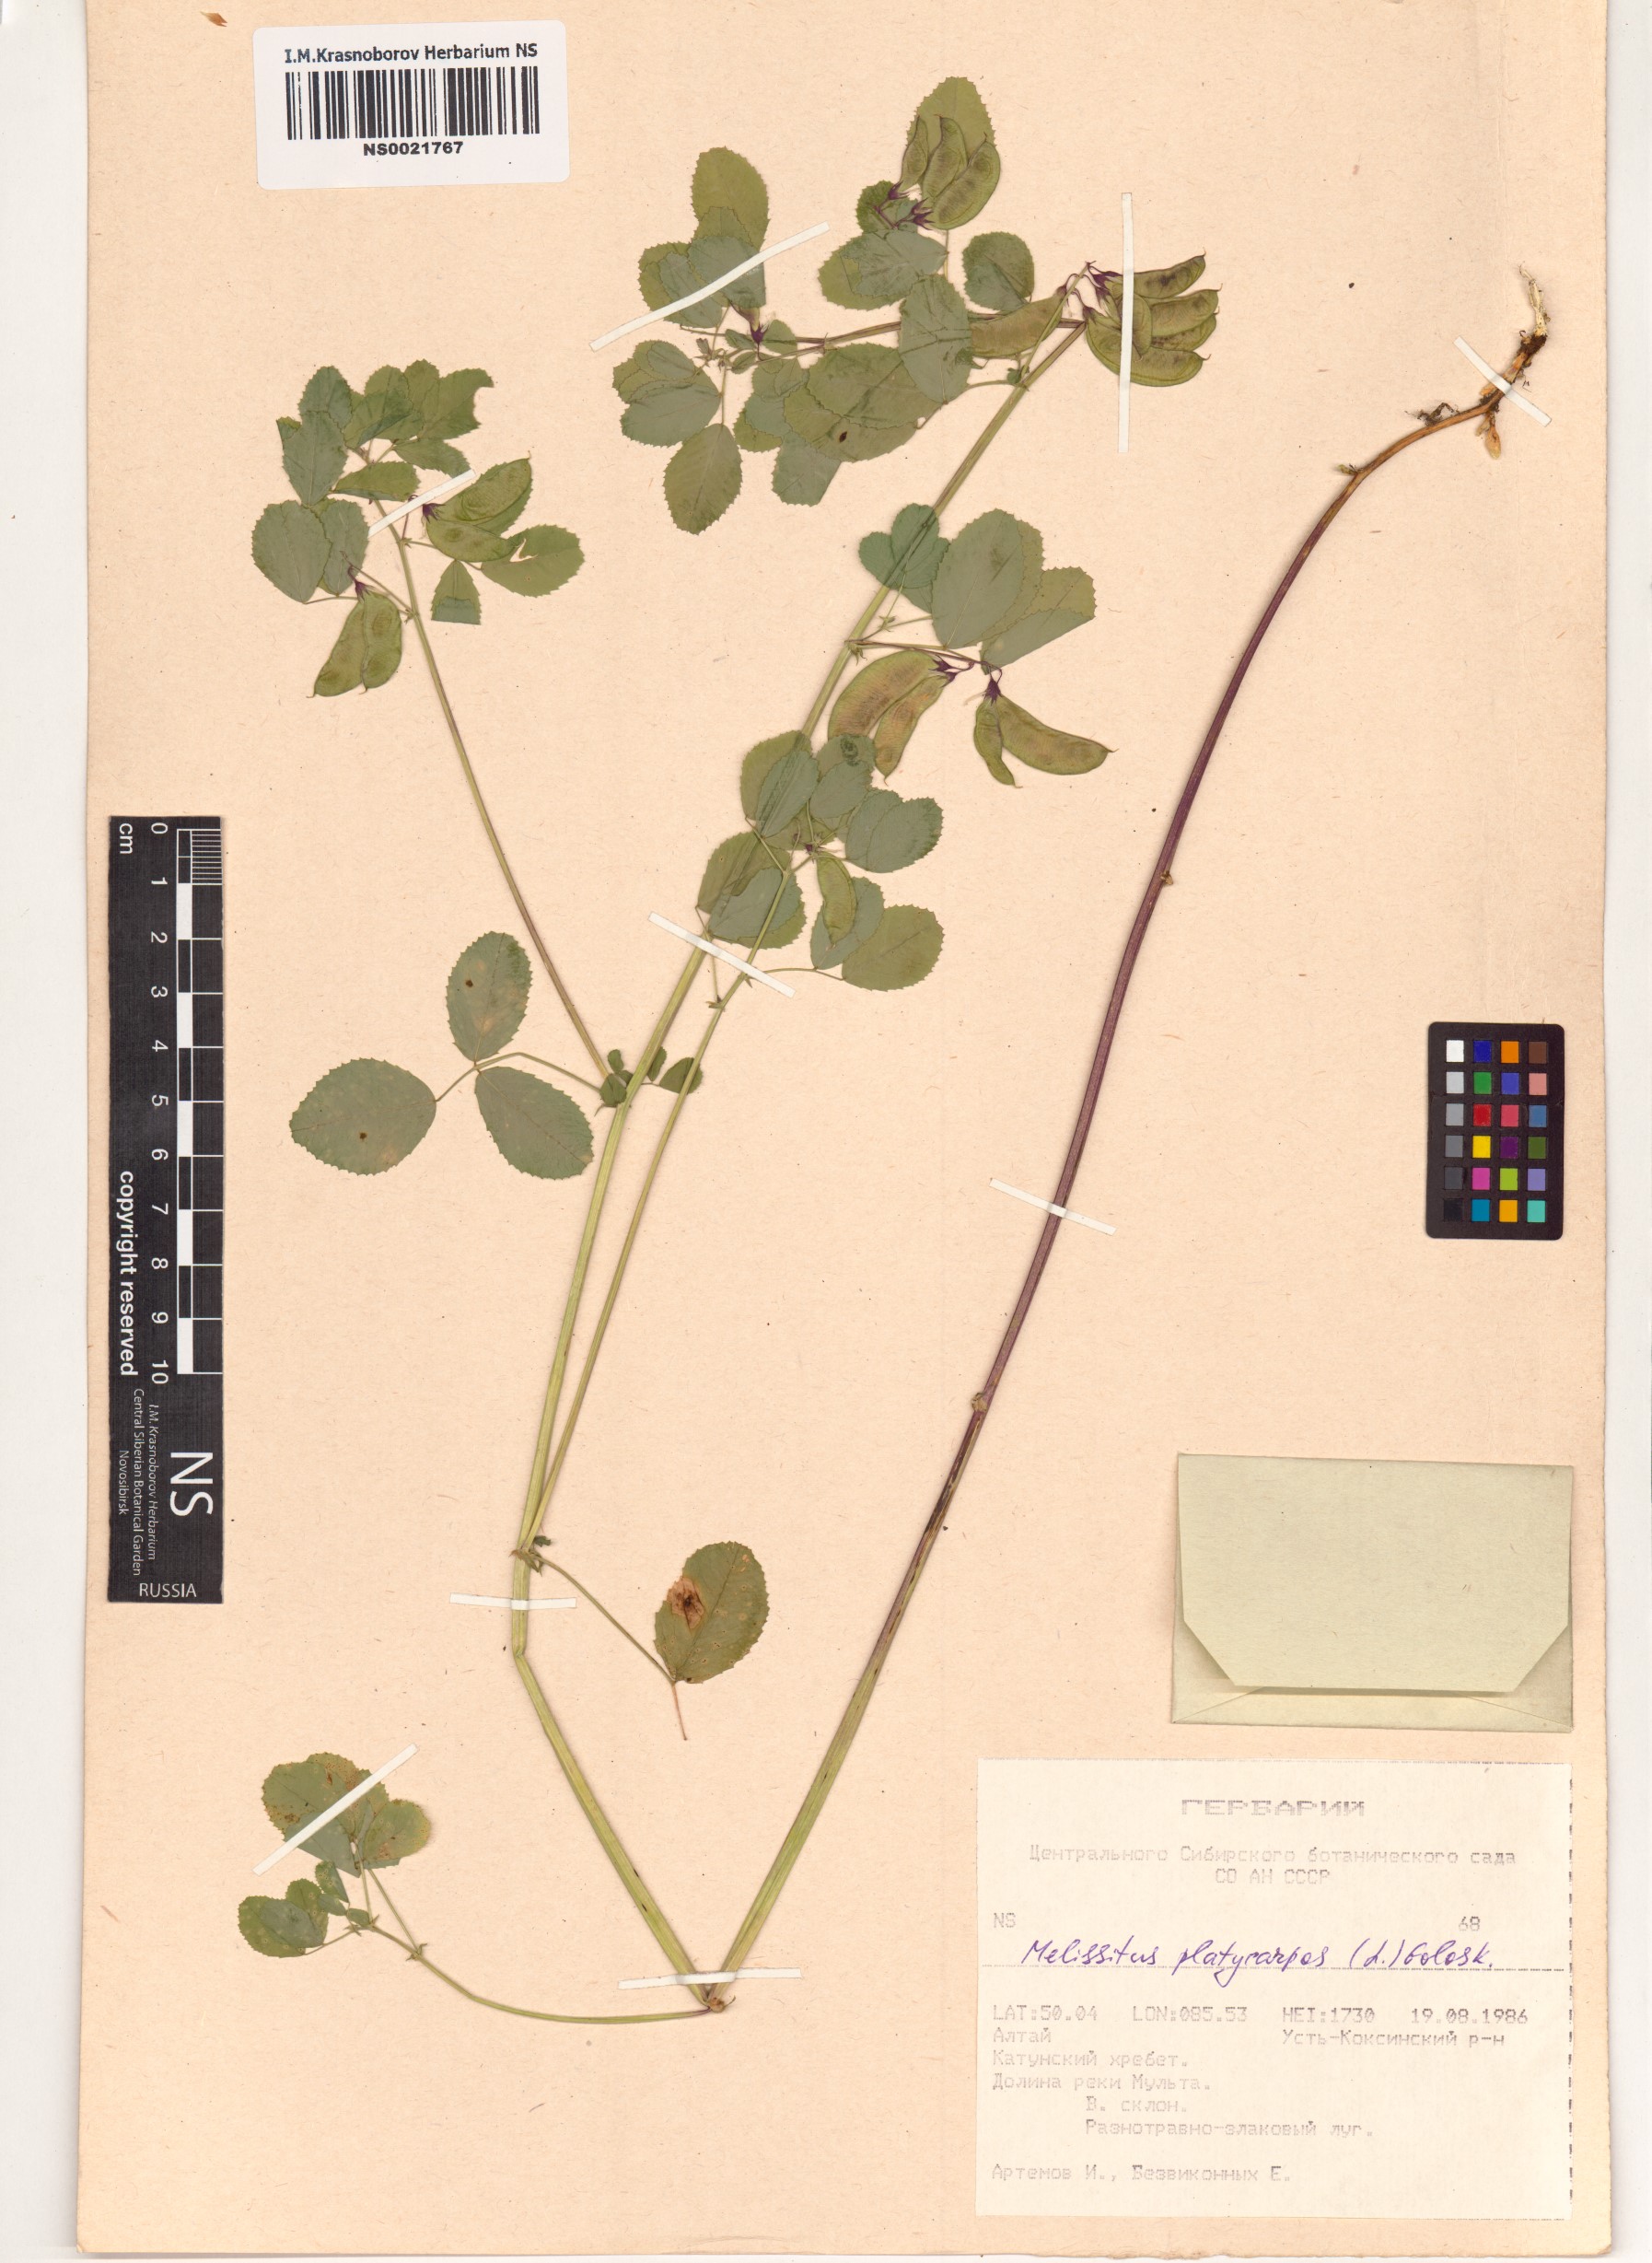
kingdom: Plantae
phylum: Tracheophyta
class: Magnoliopsida
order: Fabales
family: Fabaceae
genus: Medicago
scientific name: Medicago platycarpos
